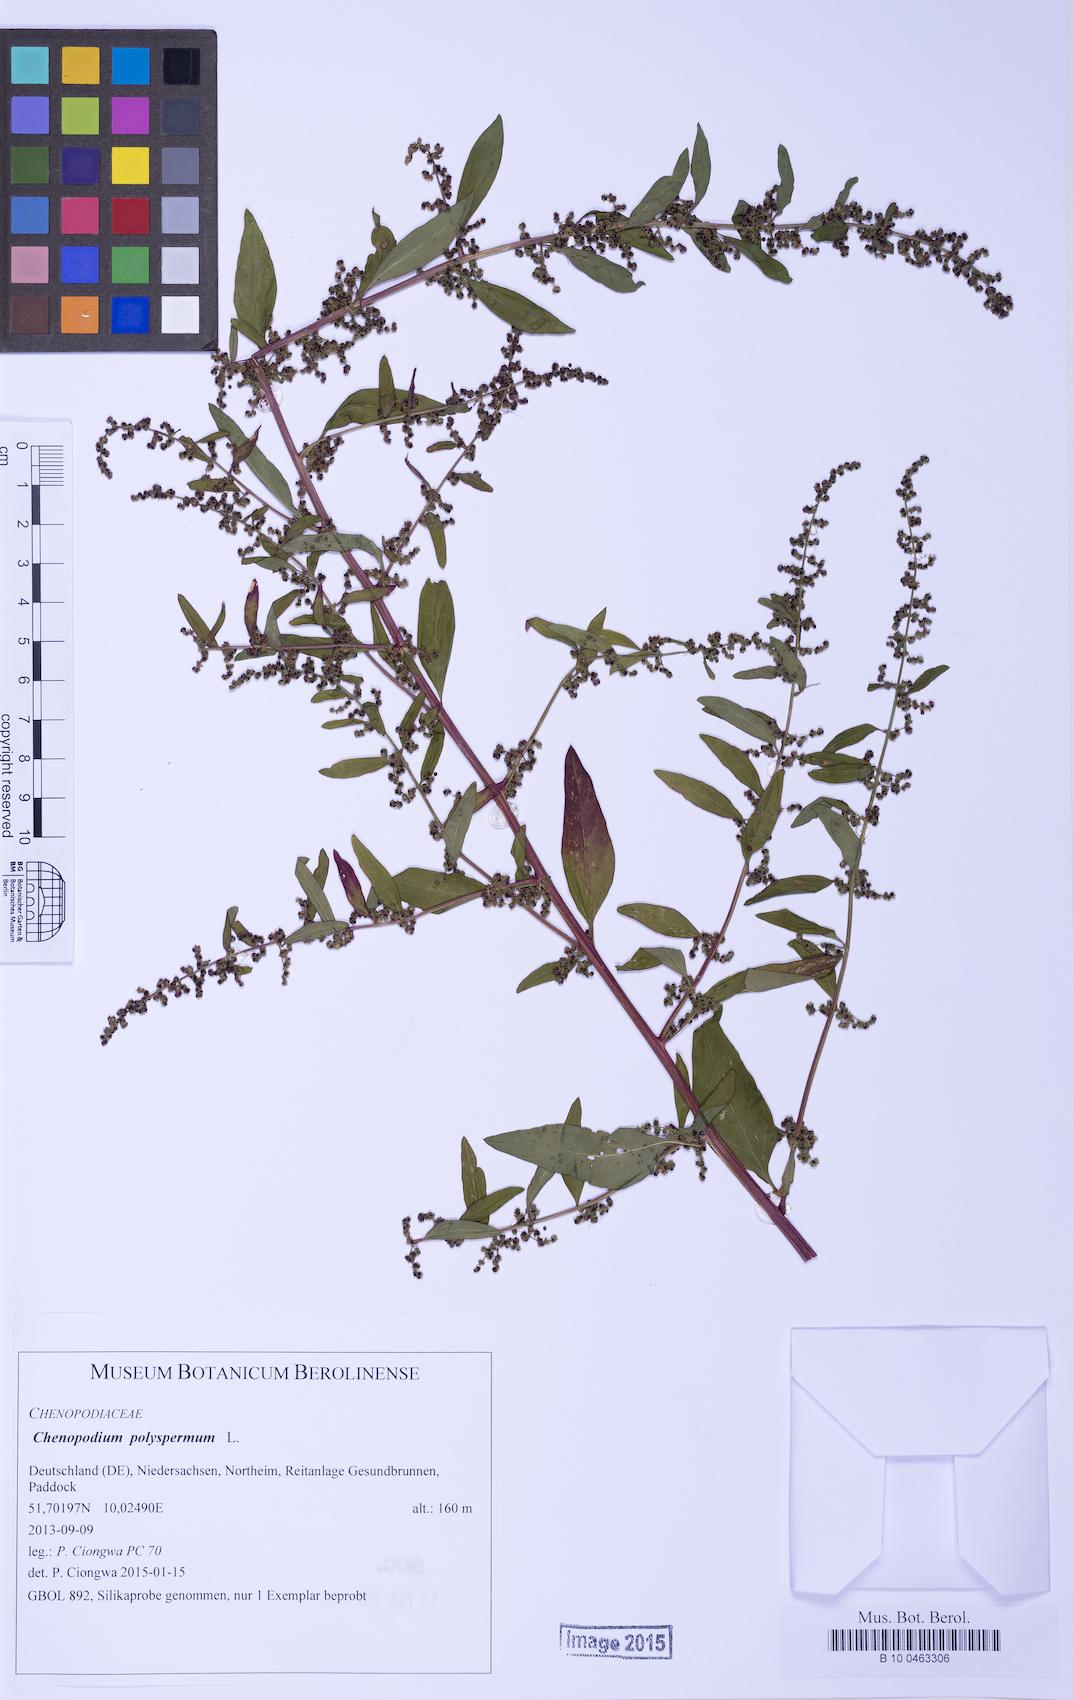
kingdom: Plantae
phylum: Tracheophyta
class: Magnoliopsida
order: Caryophyllales
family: Amaranthaceae
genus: Lipandra
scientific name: Lipandra polysperma
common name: Many-seed goosefoot
